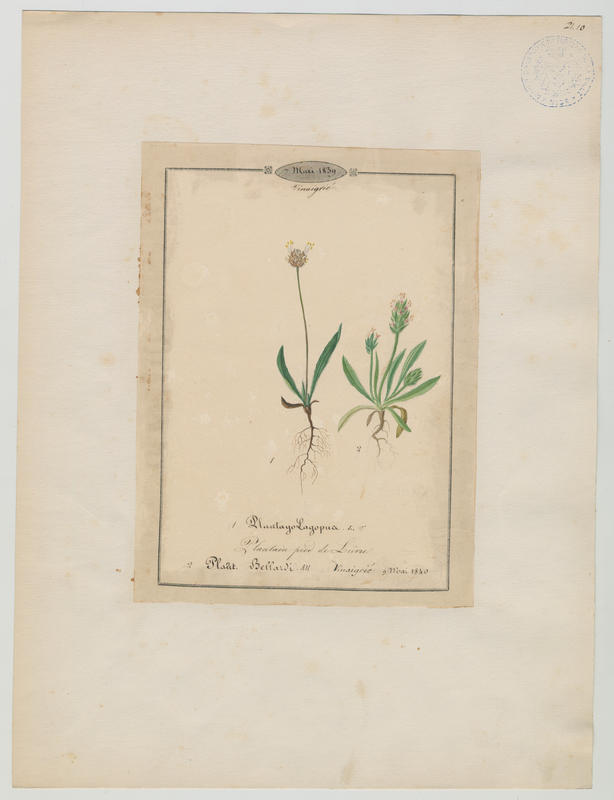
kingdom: Plantae
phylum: Tracheophyta
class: Magnoliopsida
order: Lamiales
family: Plantaginaceae
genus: Plantago
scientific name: Plantago bellardii
